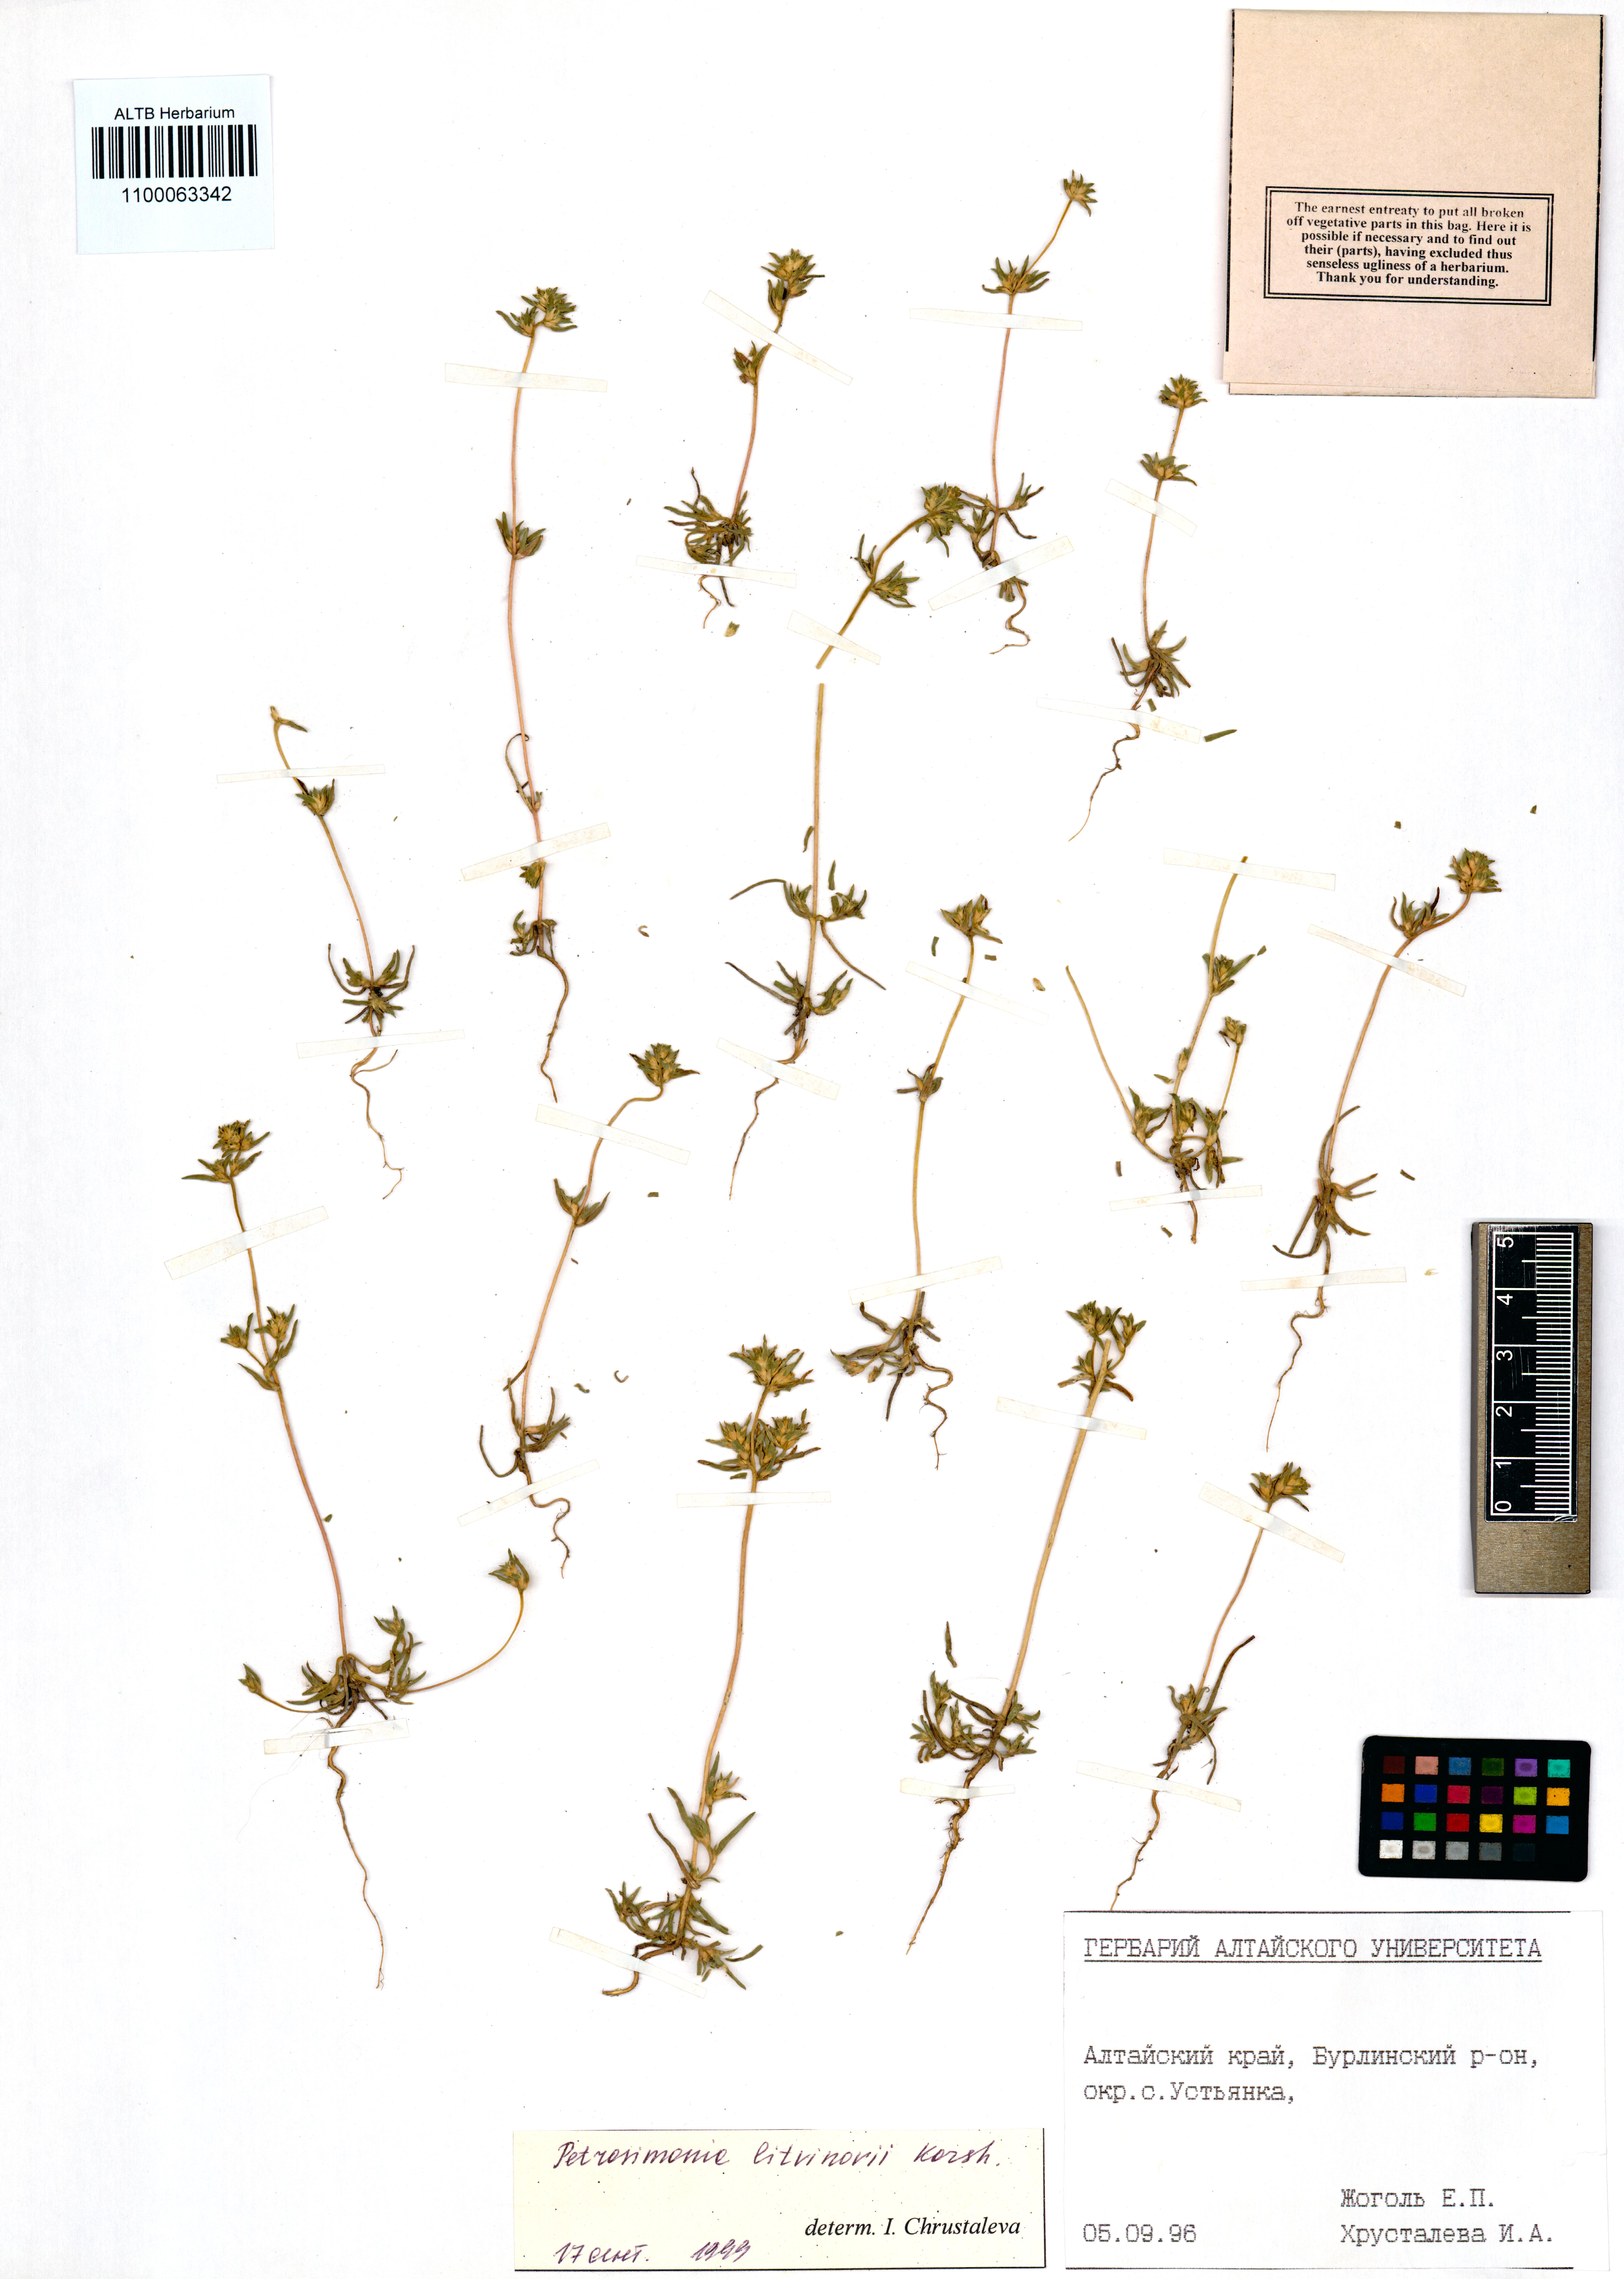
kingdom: Plantae
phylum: Tracheophyta
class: Magnoliopsida
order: Caryophyllales
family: Amaranthaceae
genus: Petrosimonia
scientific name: Petrosimonia litvinowi
